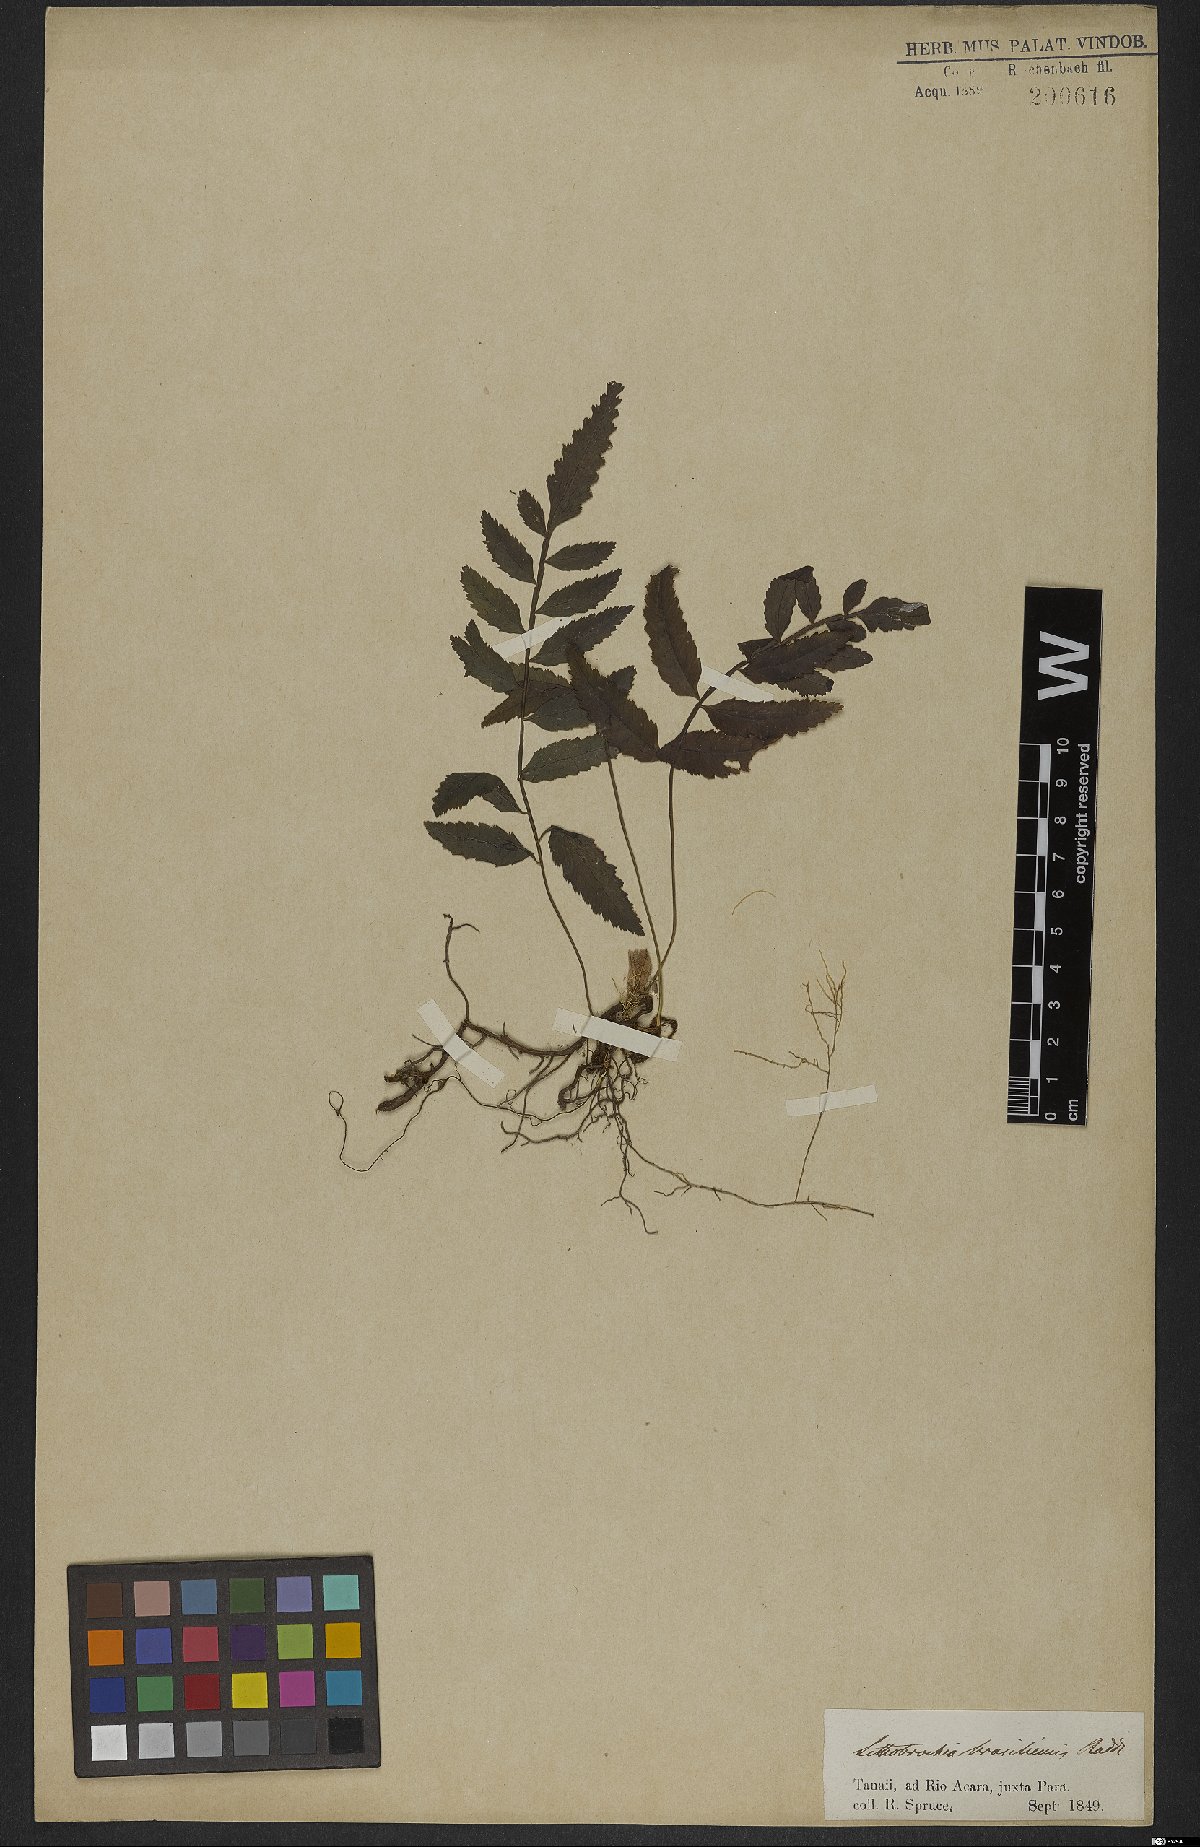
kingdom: Plantae
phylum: Tracheophyta
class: Polypodiopsida
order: Polypodiales
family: Pteridaceae
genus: Pteris
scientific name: Pteris denticulata
